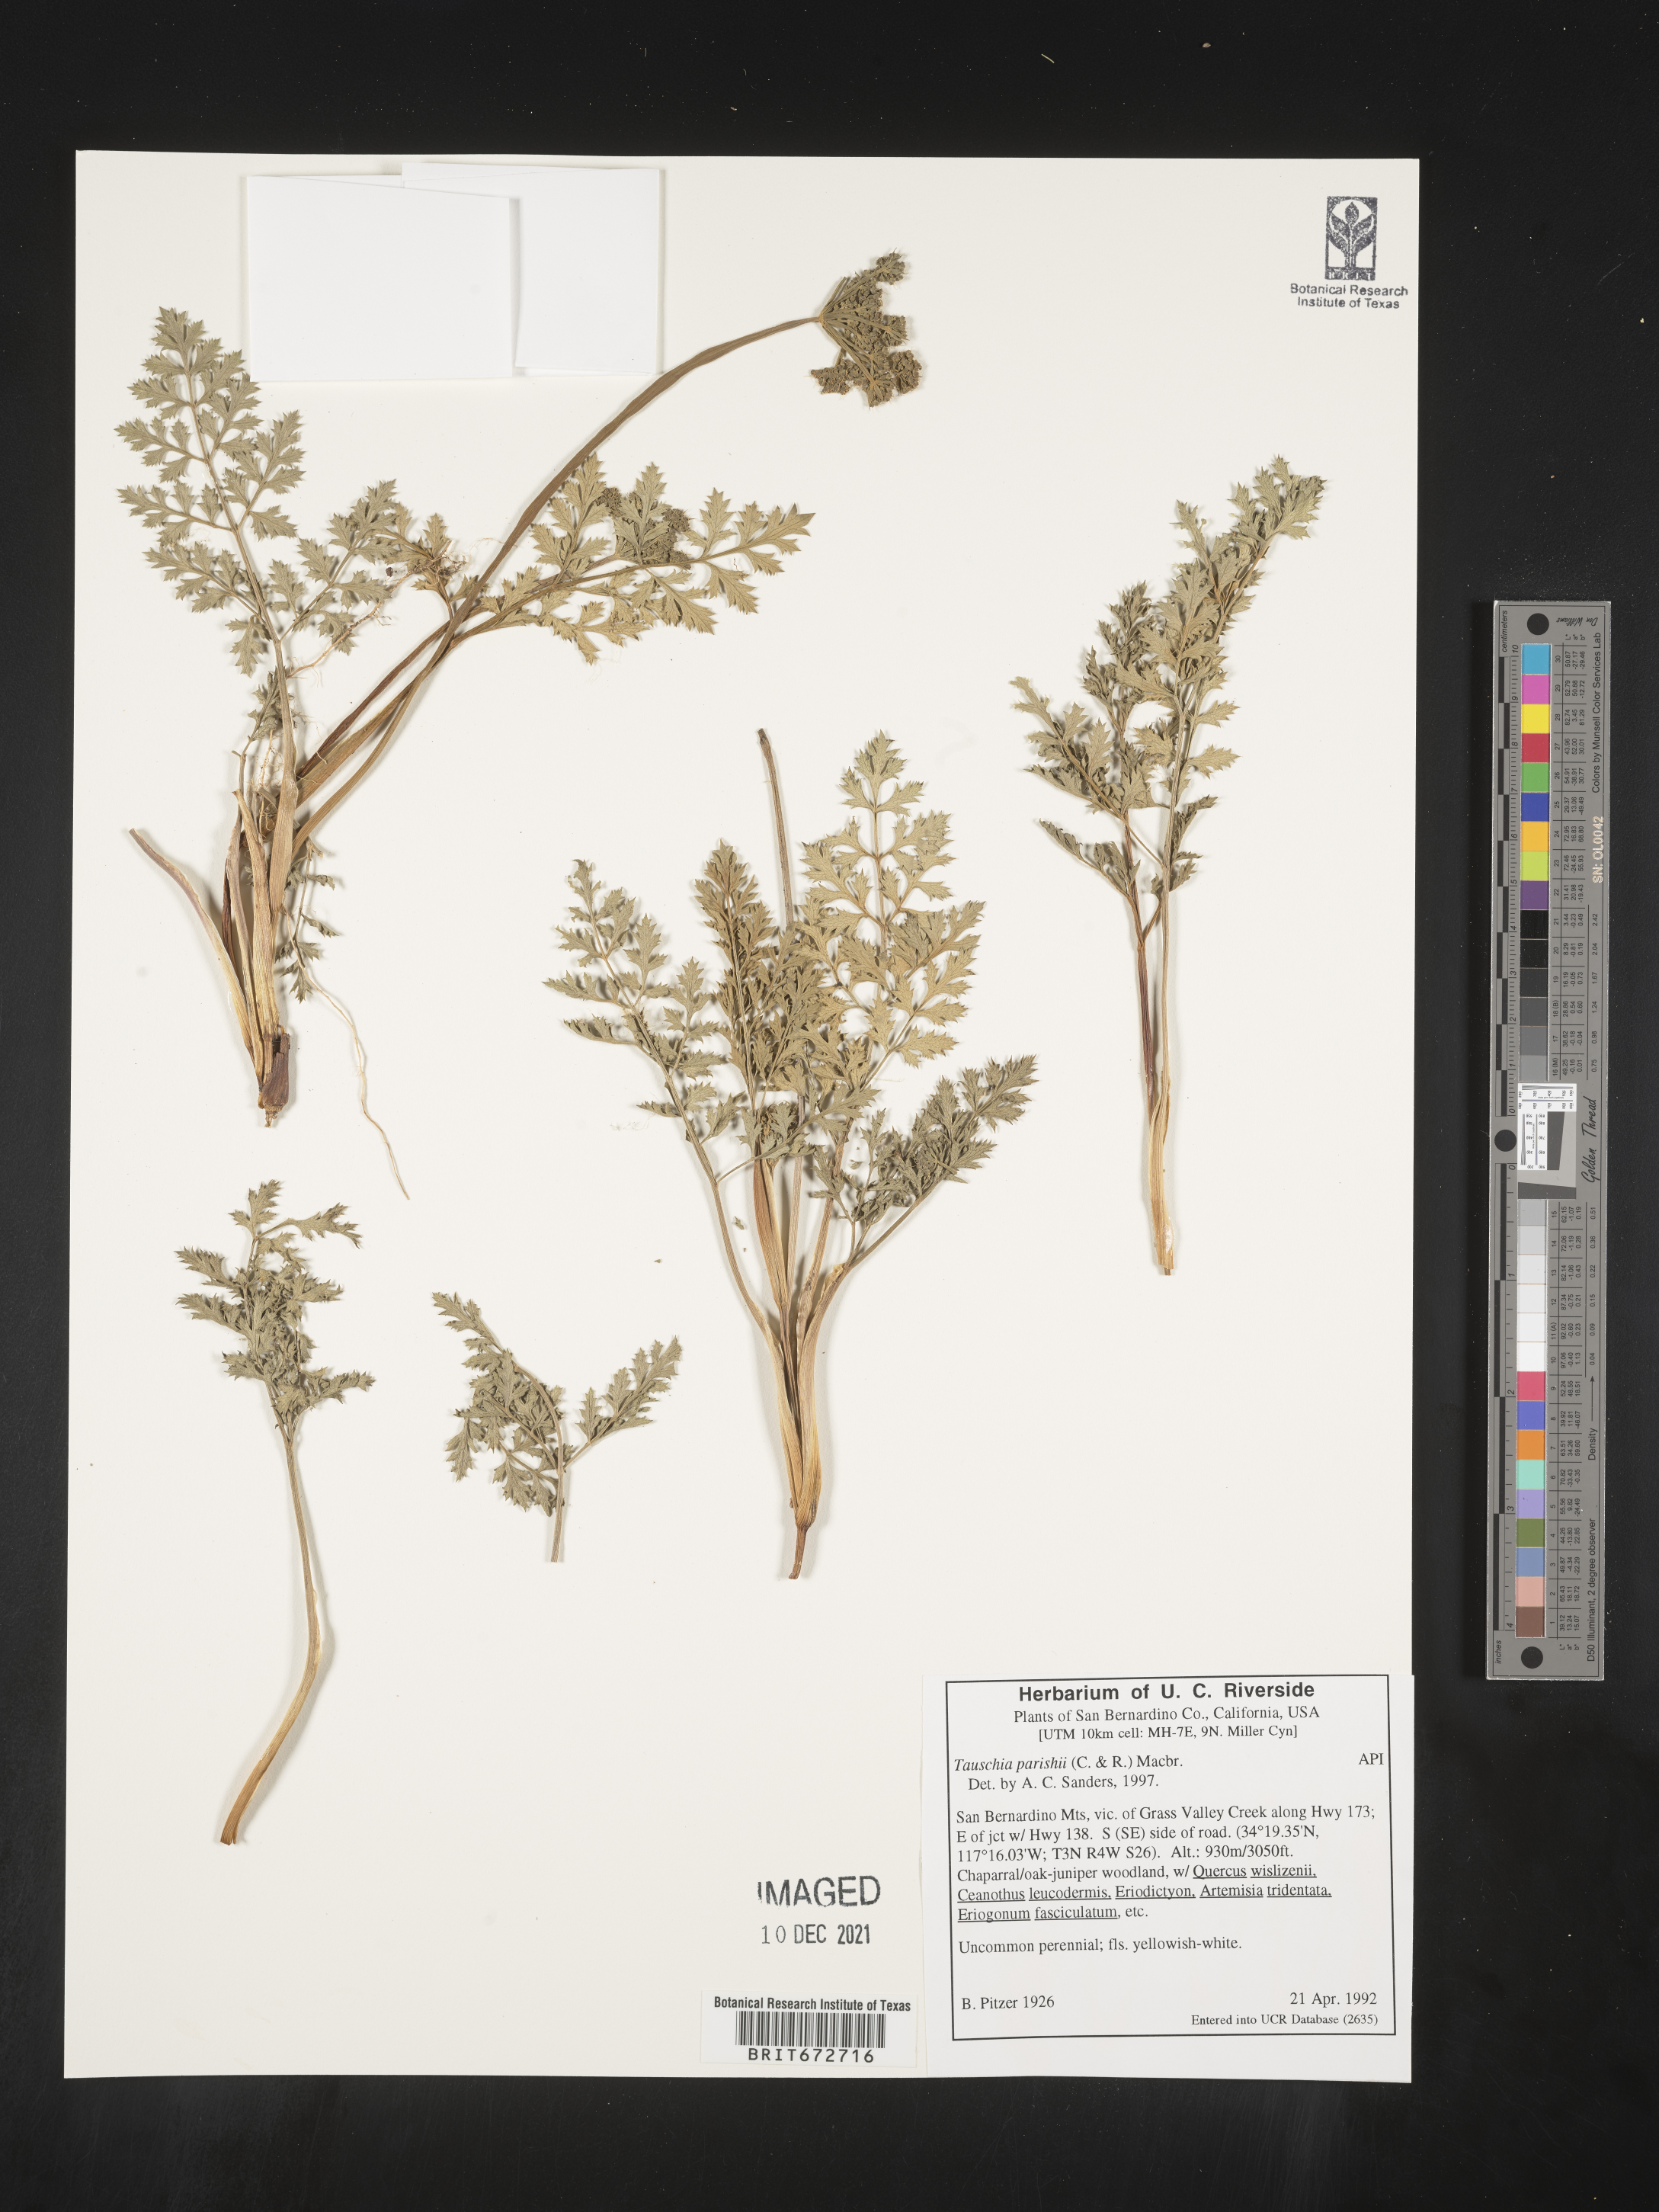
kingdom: Plantae
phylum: Tracheophyta
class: Magnoliopsida
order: Apiales
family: Apiaceae
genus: Tauschia
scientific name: Tauschia
